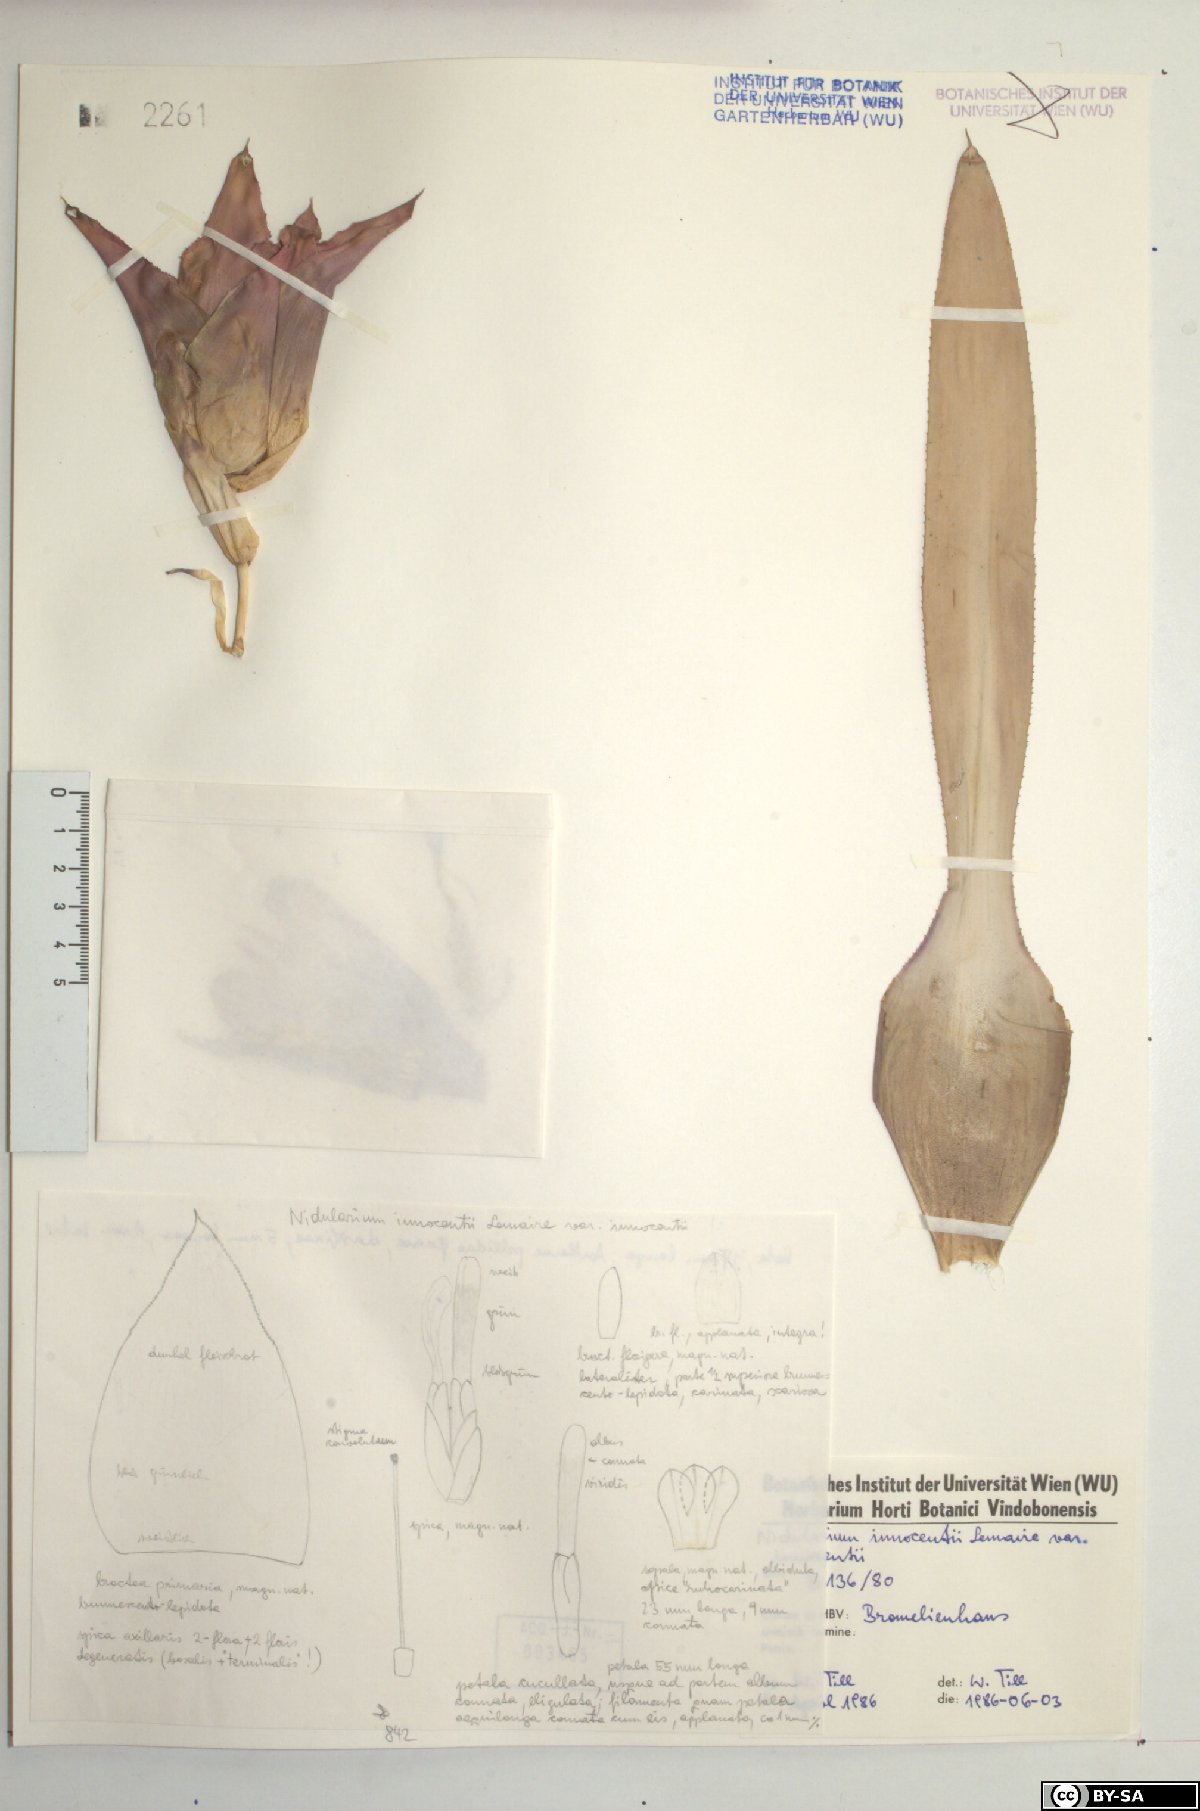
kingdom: Plantae
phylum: Tracheophyta
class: Liliopsida
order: Poales
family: Bromeliaceae
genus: Nidularium
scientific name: Nidularium innocentii
